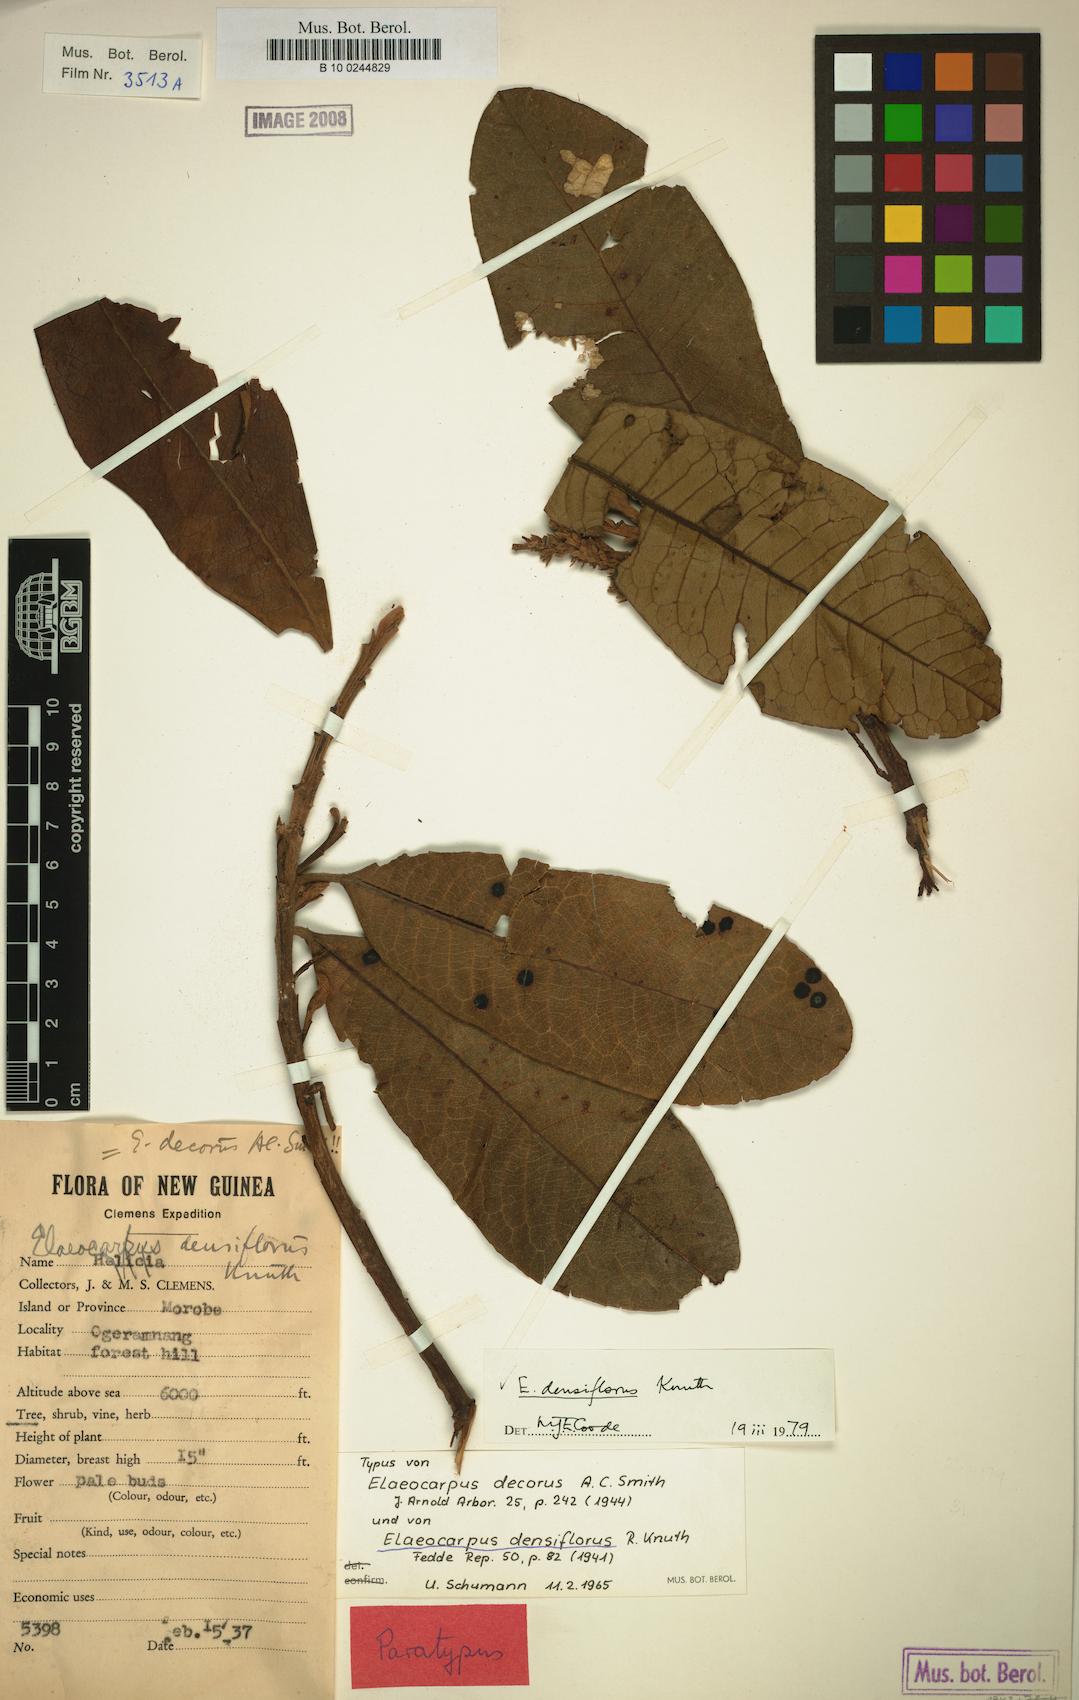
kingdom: Plantae
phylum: Tracheophyta
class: Magnoliopsida
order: Oxalidales
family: Elaeocarpaceae
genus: Elaeocarpus
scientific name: Elaeocarpus densiflorus
